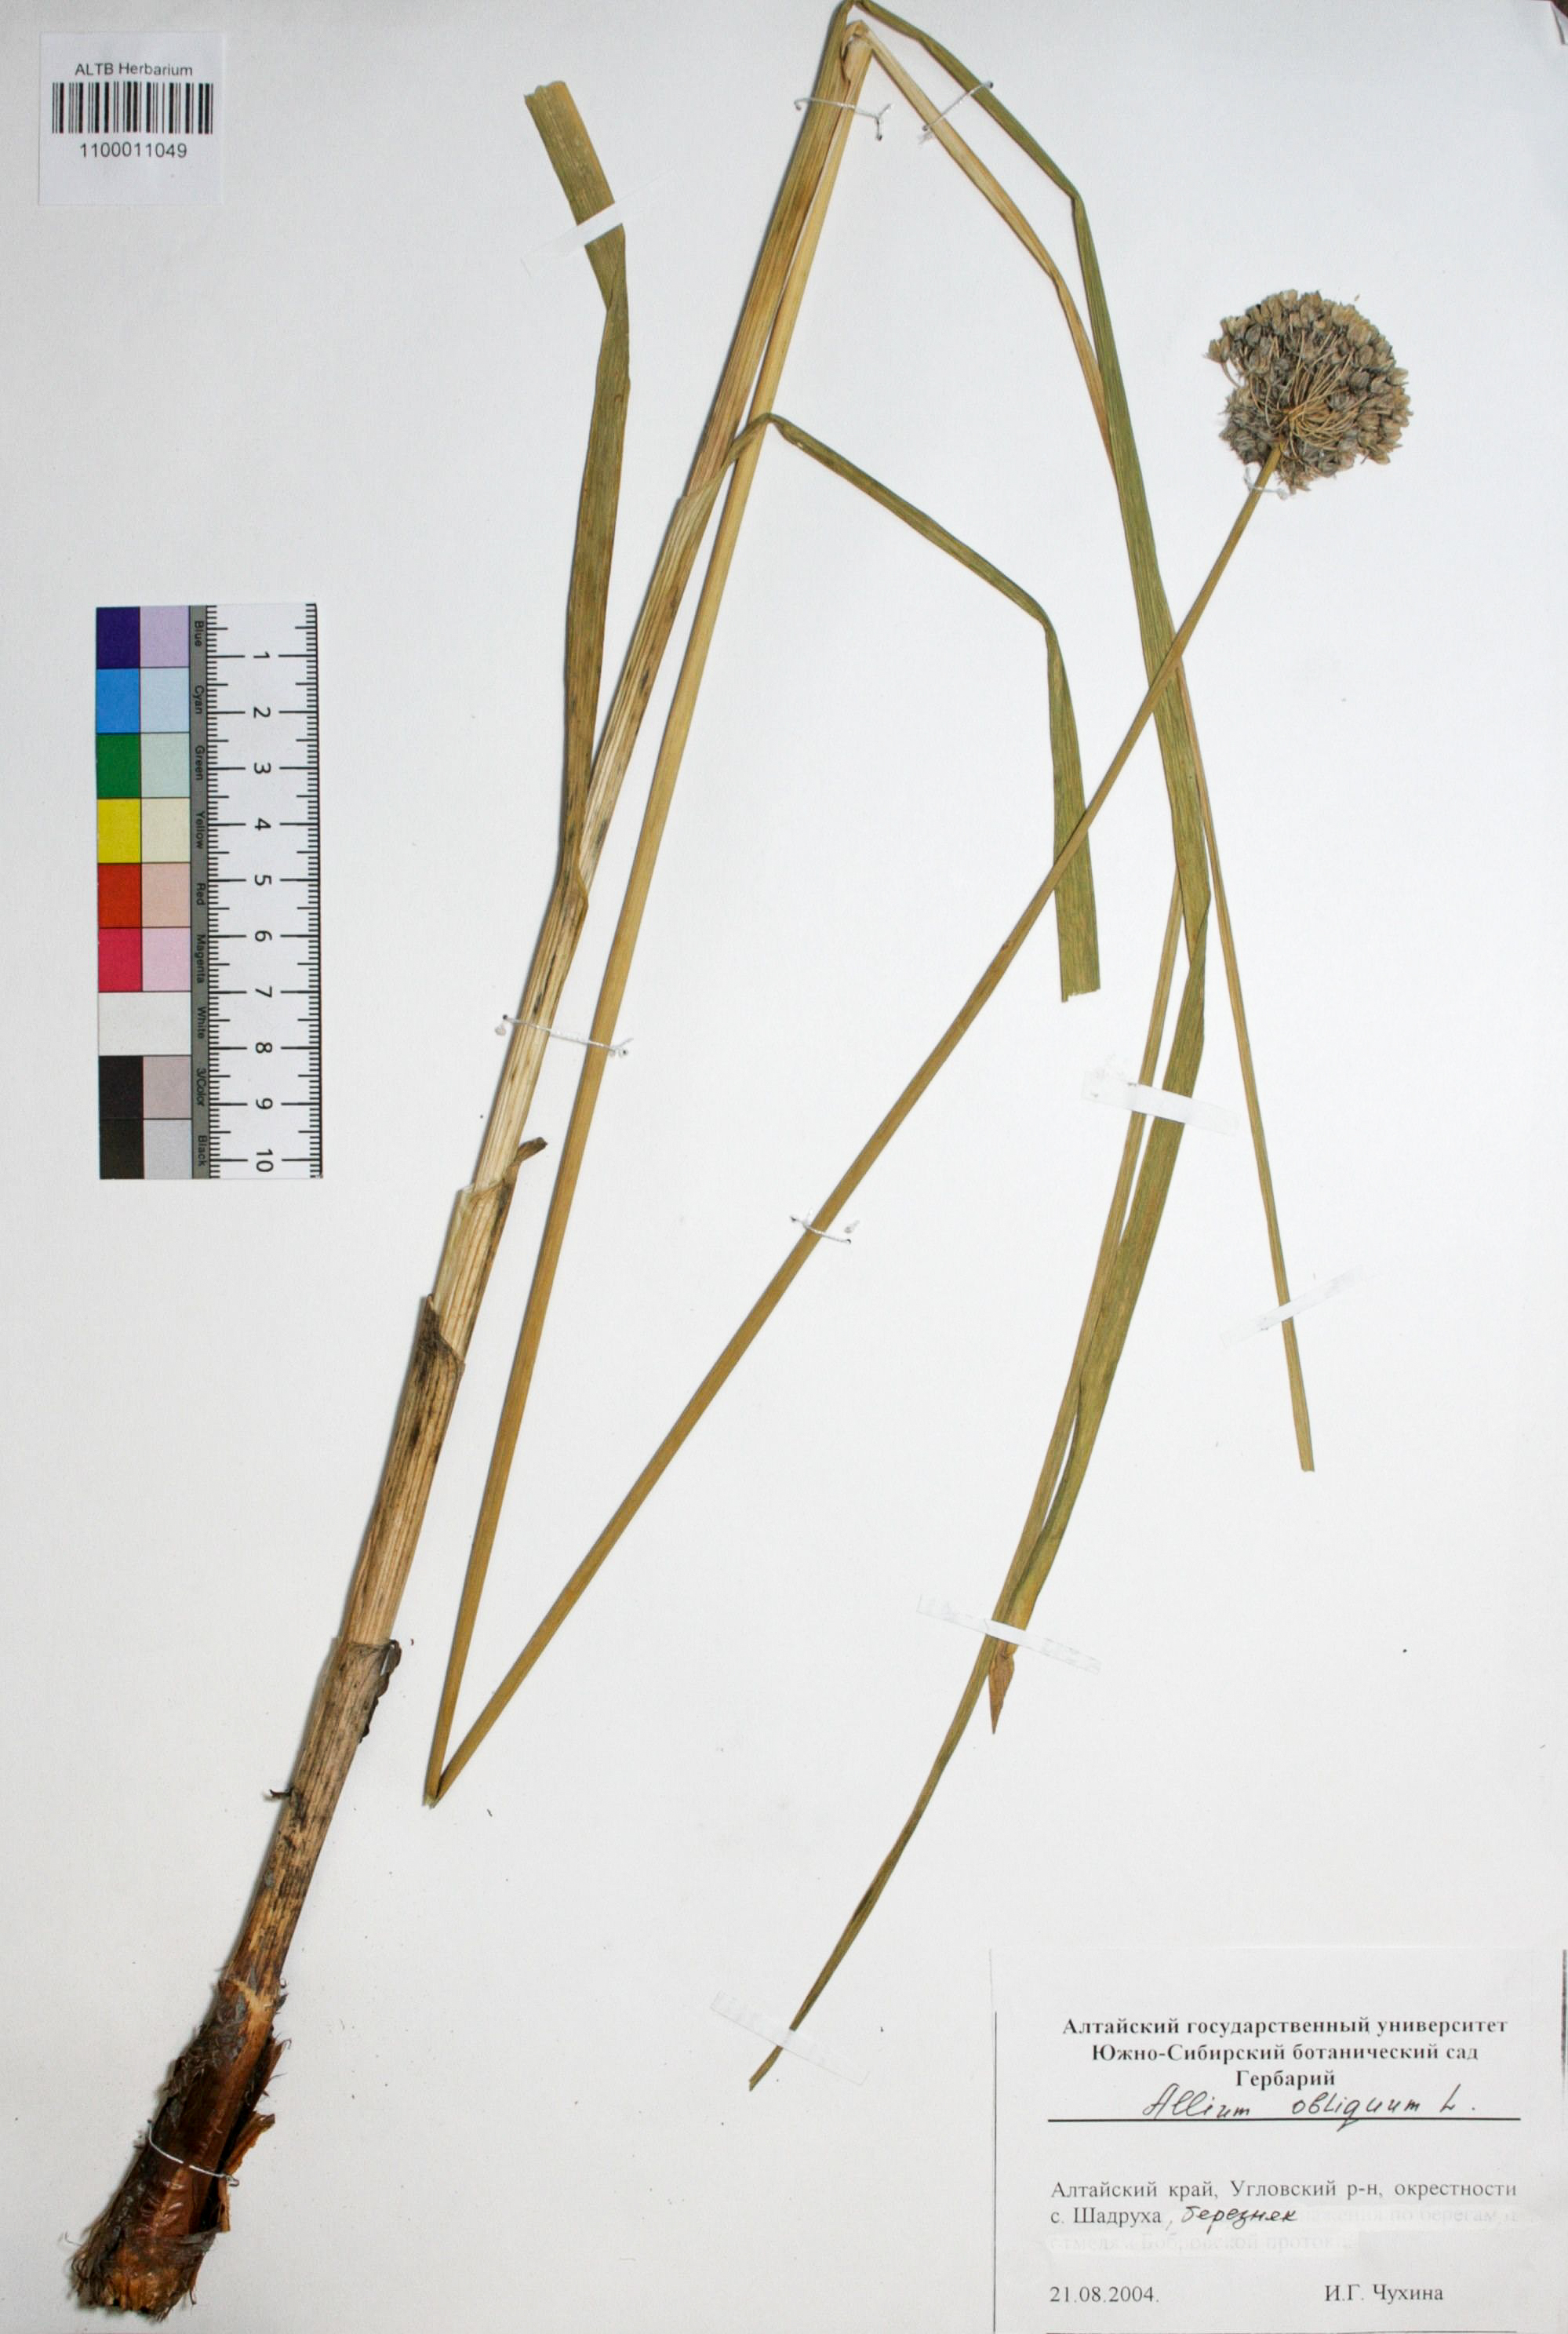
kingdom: Plantae
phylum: Tracheophyta
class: Liliopsida
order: Asparagales
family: Amaryllidaceae
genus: Allium
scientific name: Allium obliquum
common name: Oblique onion
